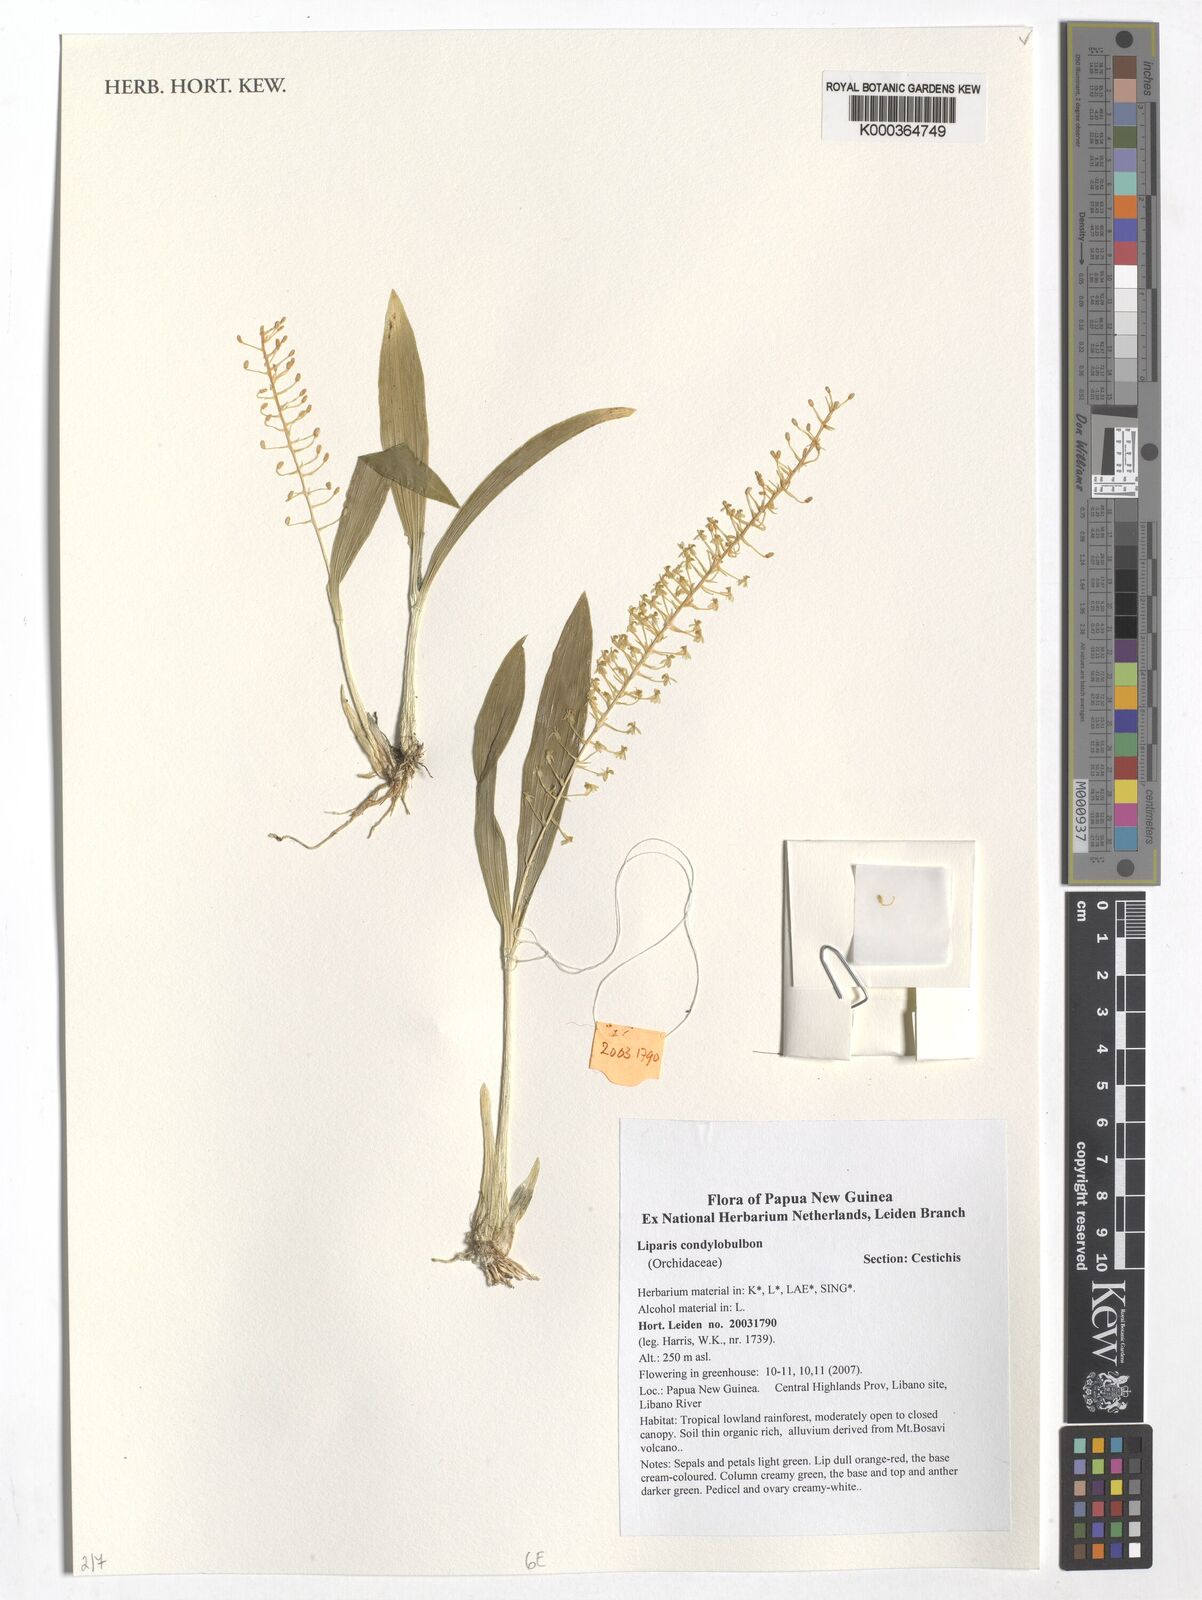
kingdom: Plantae
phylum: Tracheophyta
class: Liliopsida
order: Asparagales
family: Orchidaceae
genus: Liparis
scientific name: Liparis condylobulbon
